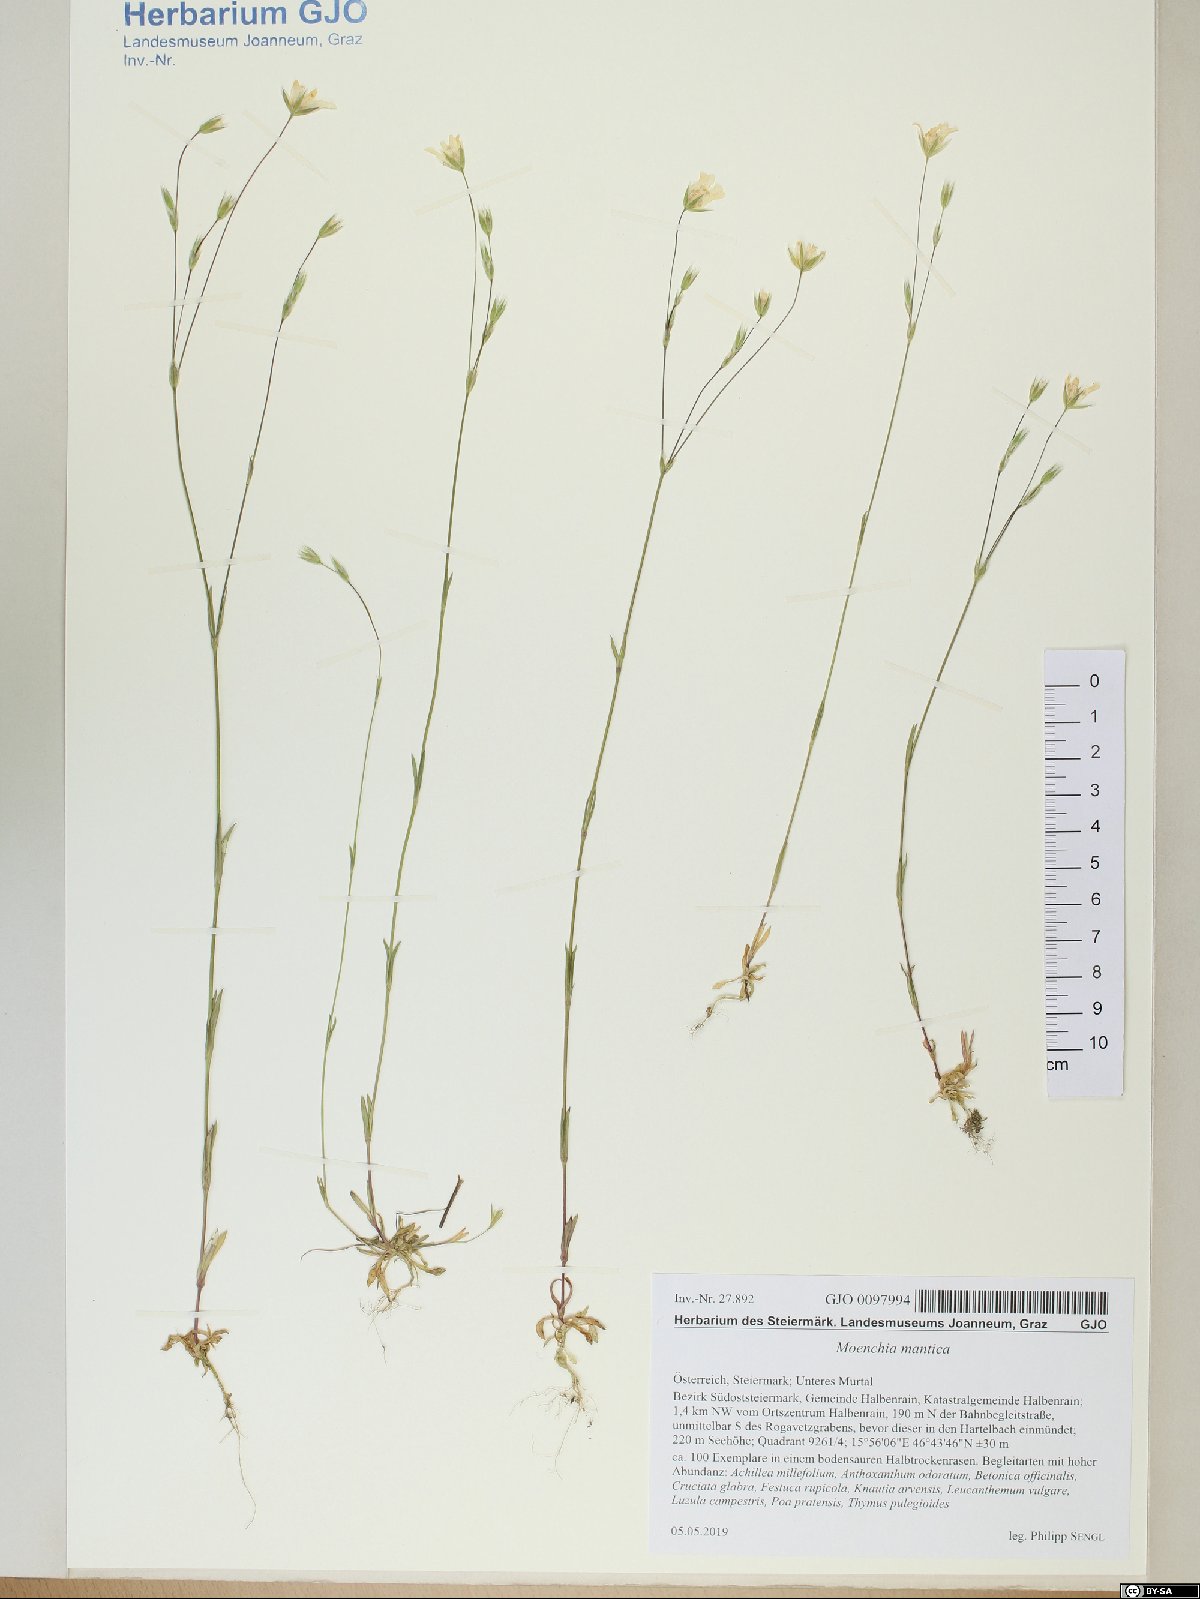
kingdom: Plantae
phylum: Tracheophyta
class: Magnoliopsida
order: Caryophyllales
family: Caryophyllaceae
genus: Moenchia
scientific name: Moenchia mantica
